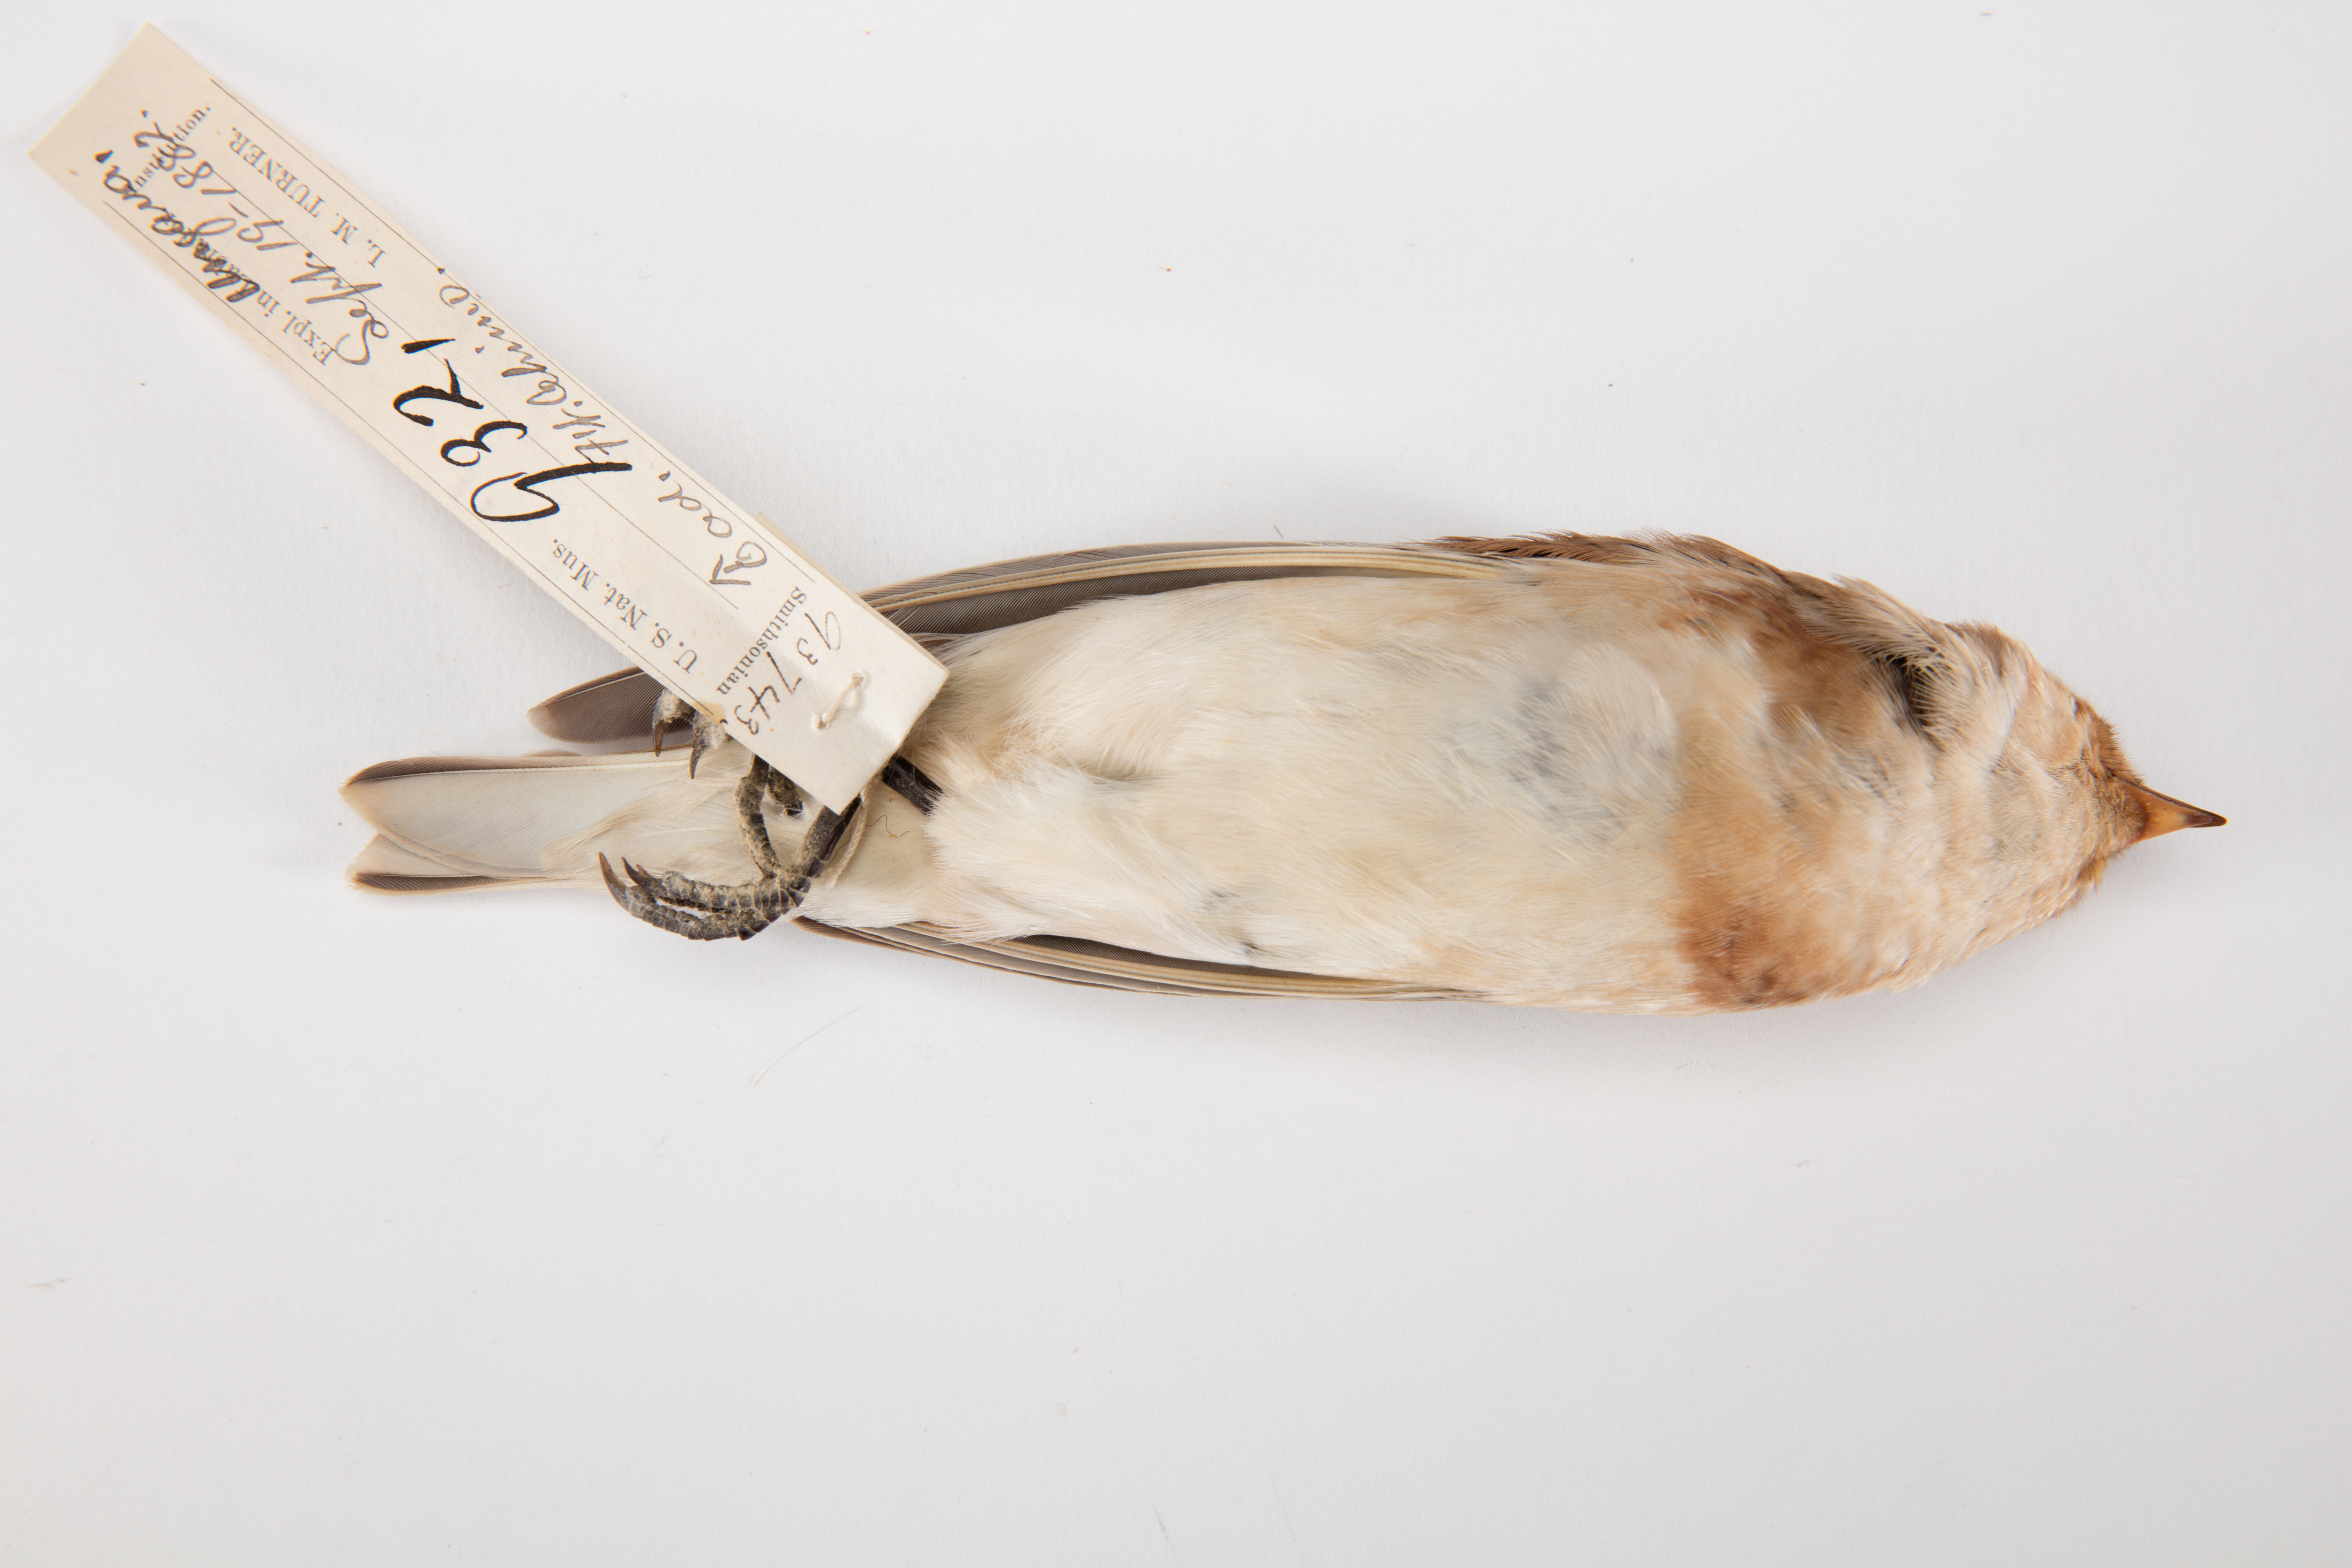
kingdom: Animalia
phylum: Chordata
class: Aves
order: Passeriformes
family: Calcariidae
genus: Plectrophenax
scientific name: Plectrophenax nivalis
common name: Snow bunting
